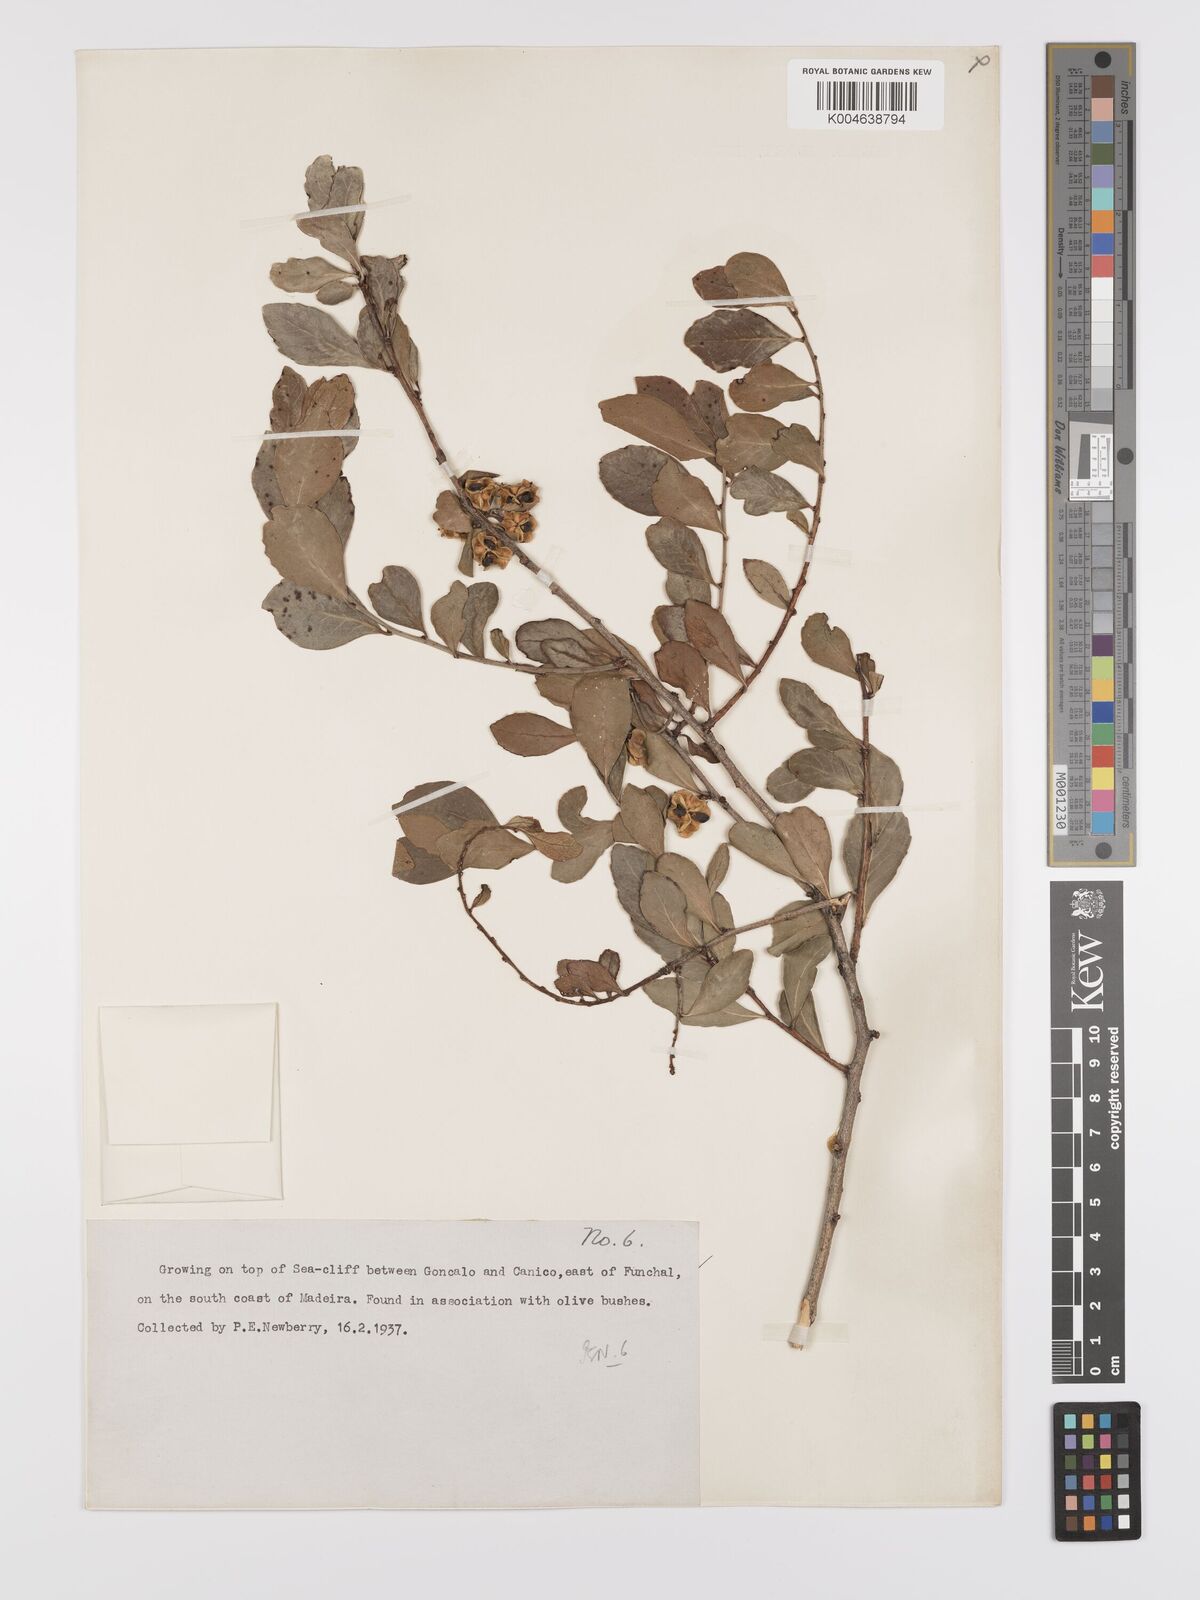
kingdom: Plantae
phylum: Tracheophyta
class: Magnoliopsida
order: Celastrales
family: Celastraceae
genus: Gymnosporia
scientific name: Gymnosporia
